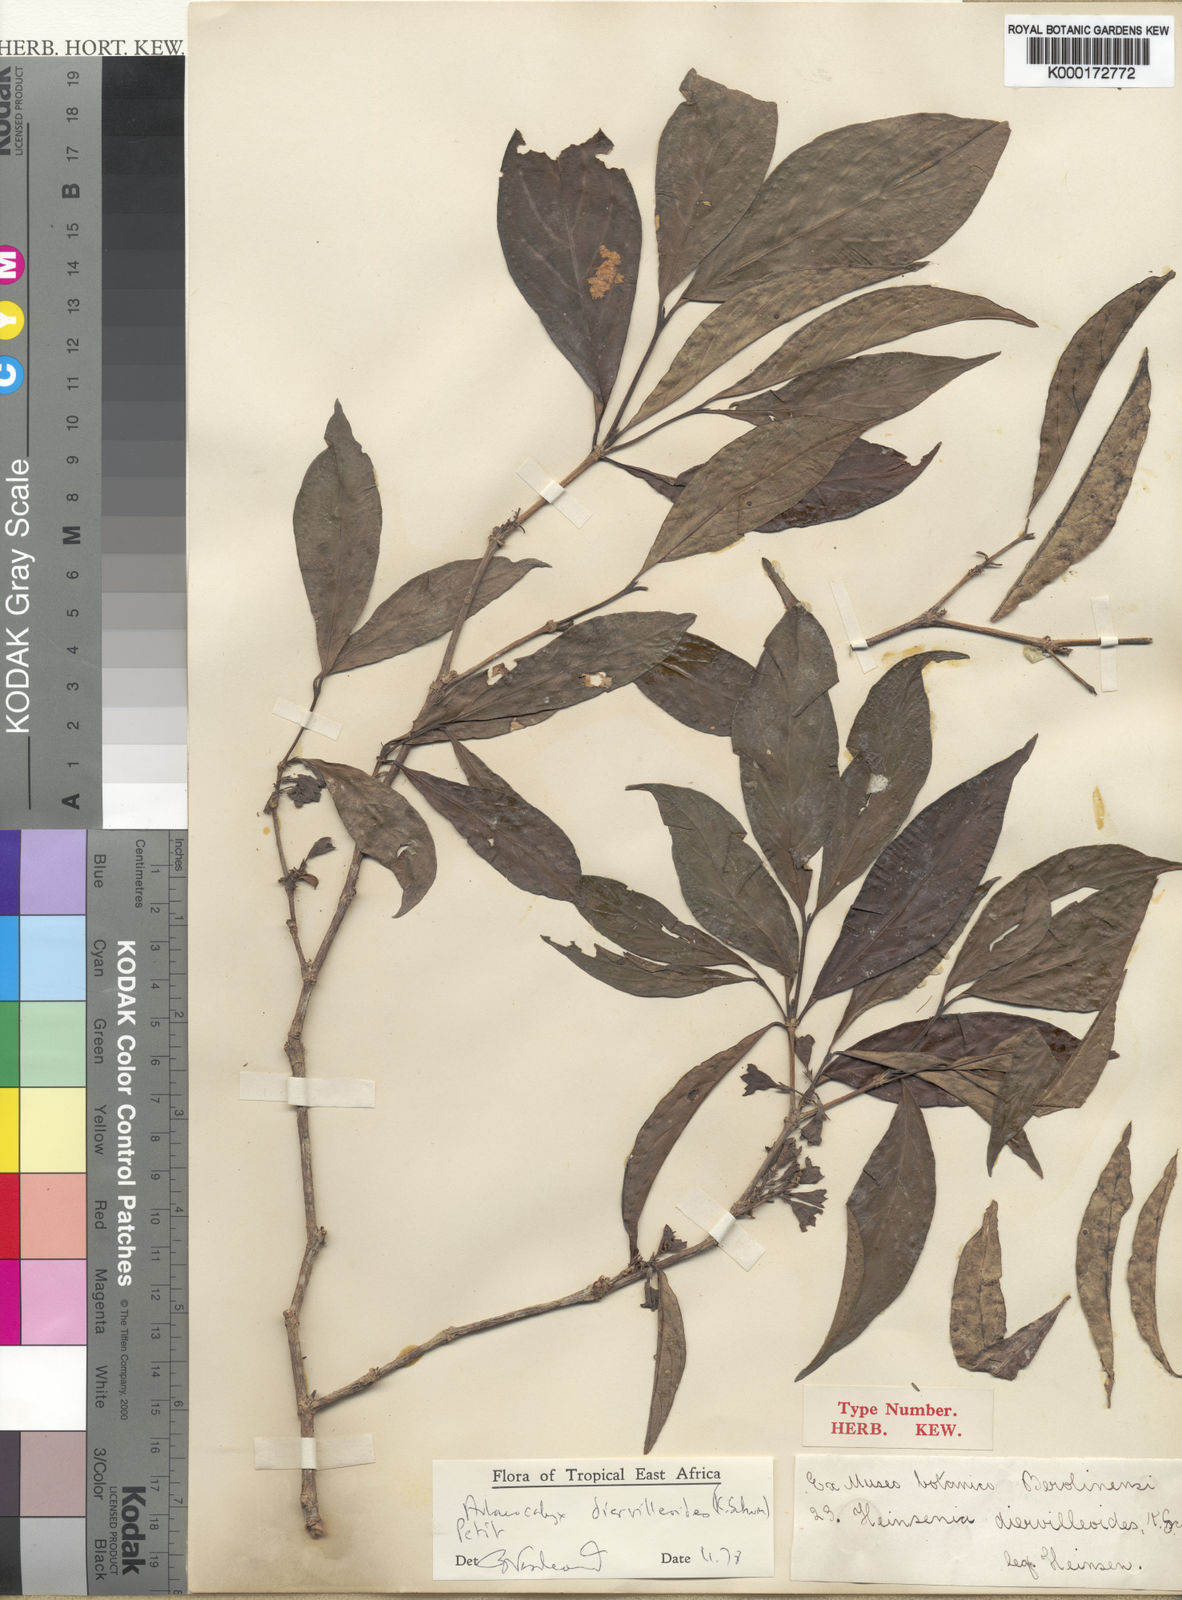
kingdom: Plantae
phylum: Tracheophyta
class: Magnoliopsida
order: Gentianales
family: Rubiaceae
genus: Heinsenia
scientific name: Heinsenia diervilleoides
